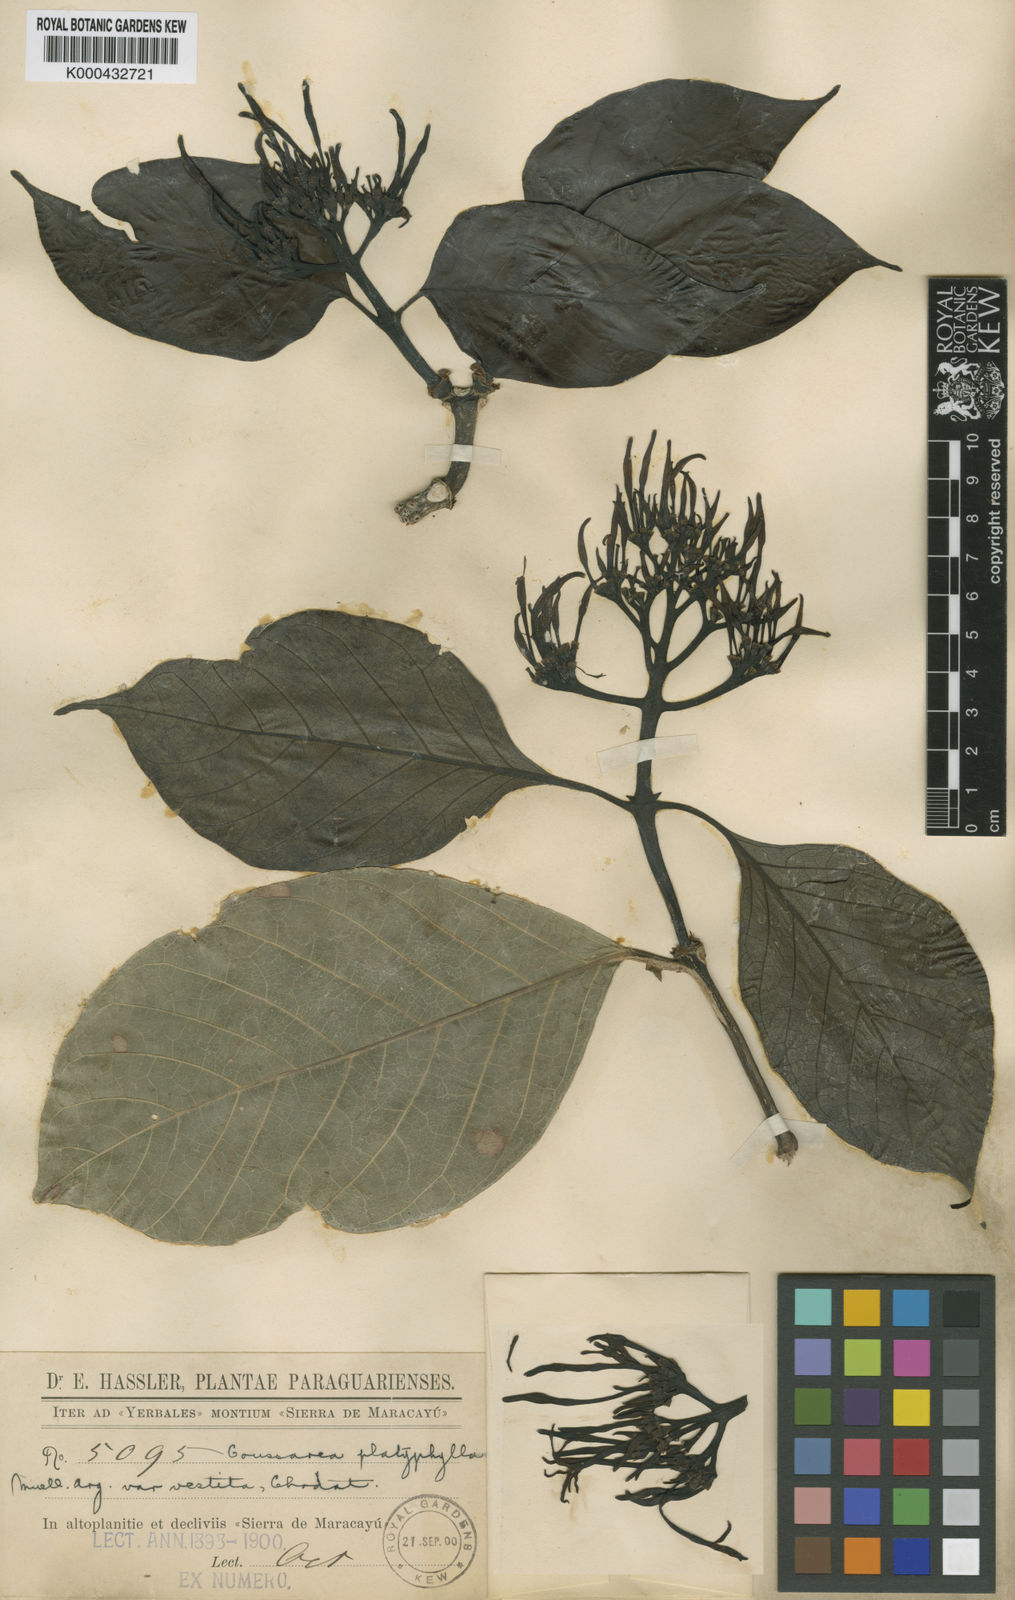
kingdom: Plantae
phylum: Tracheophyta
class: Magnoliopsida
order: Gentianales
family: Rubiaceae
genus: Coussarea
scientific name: Coussarea platyphylla
